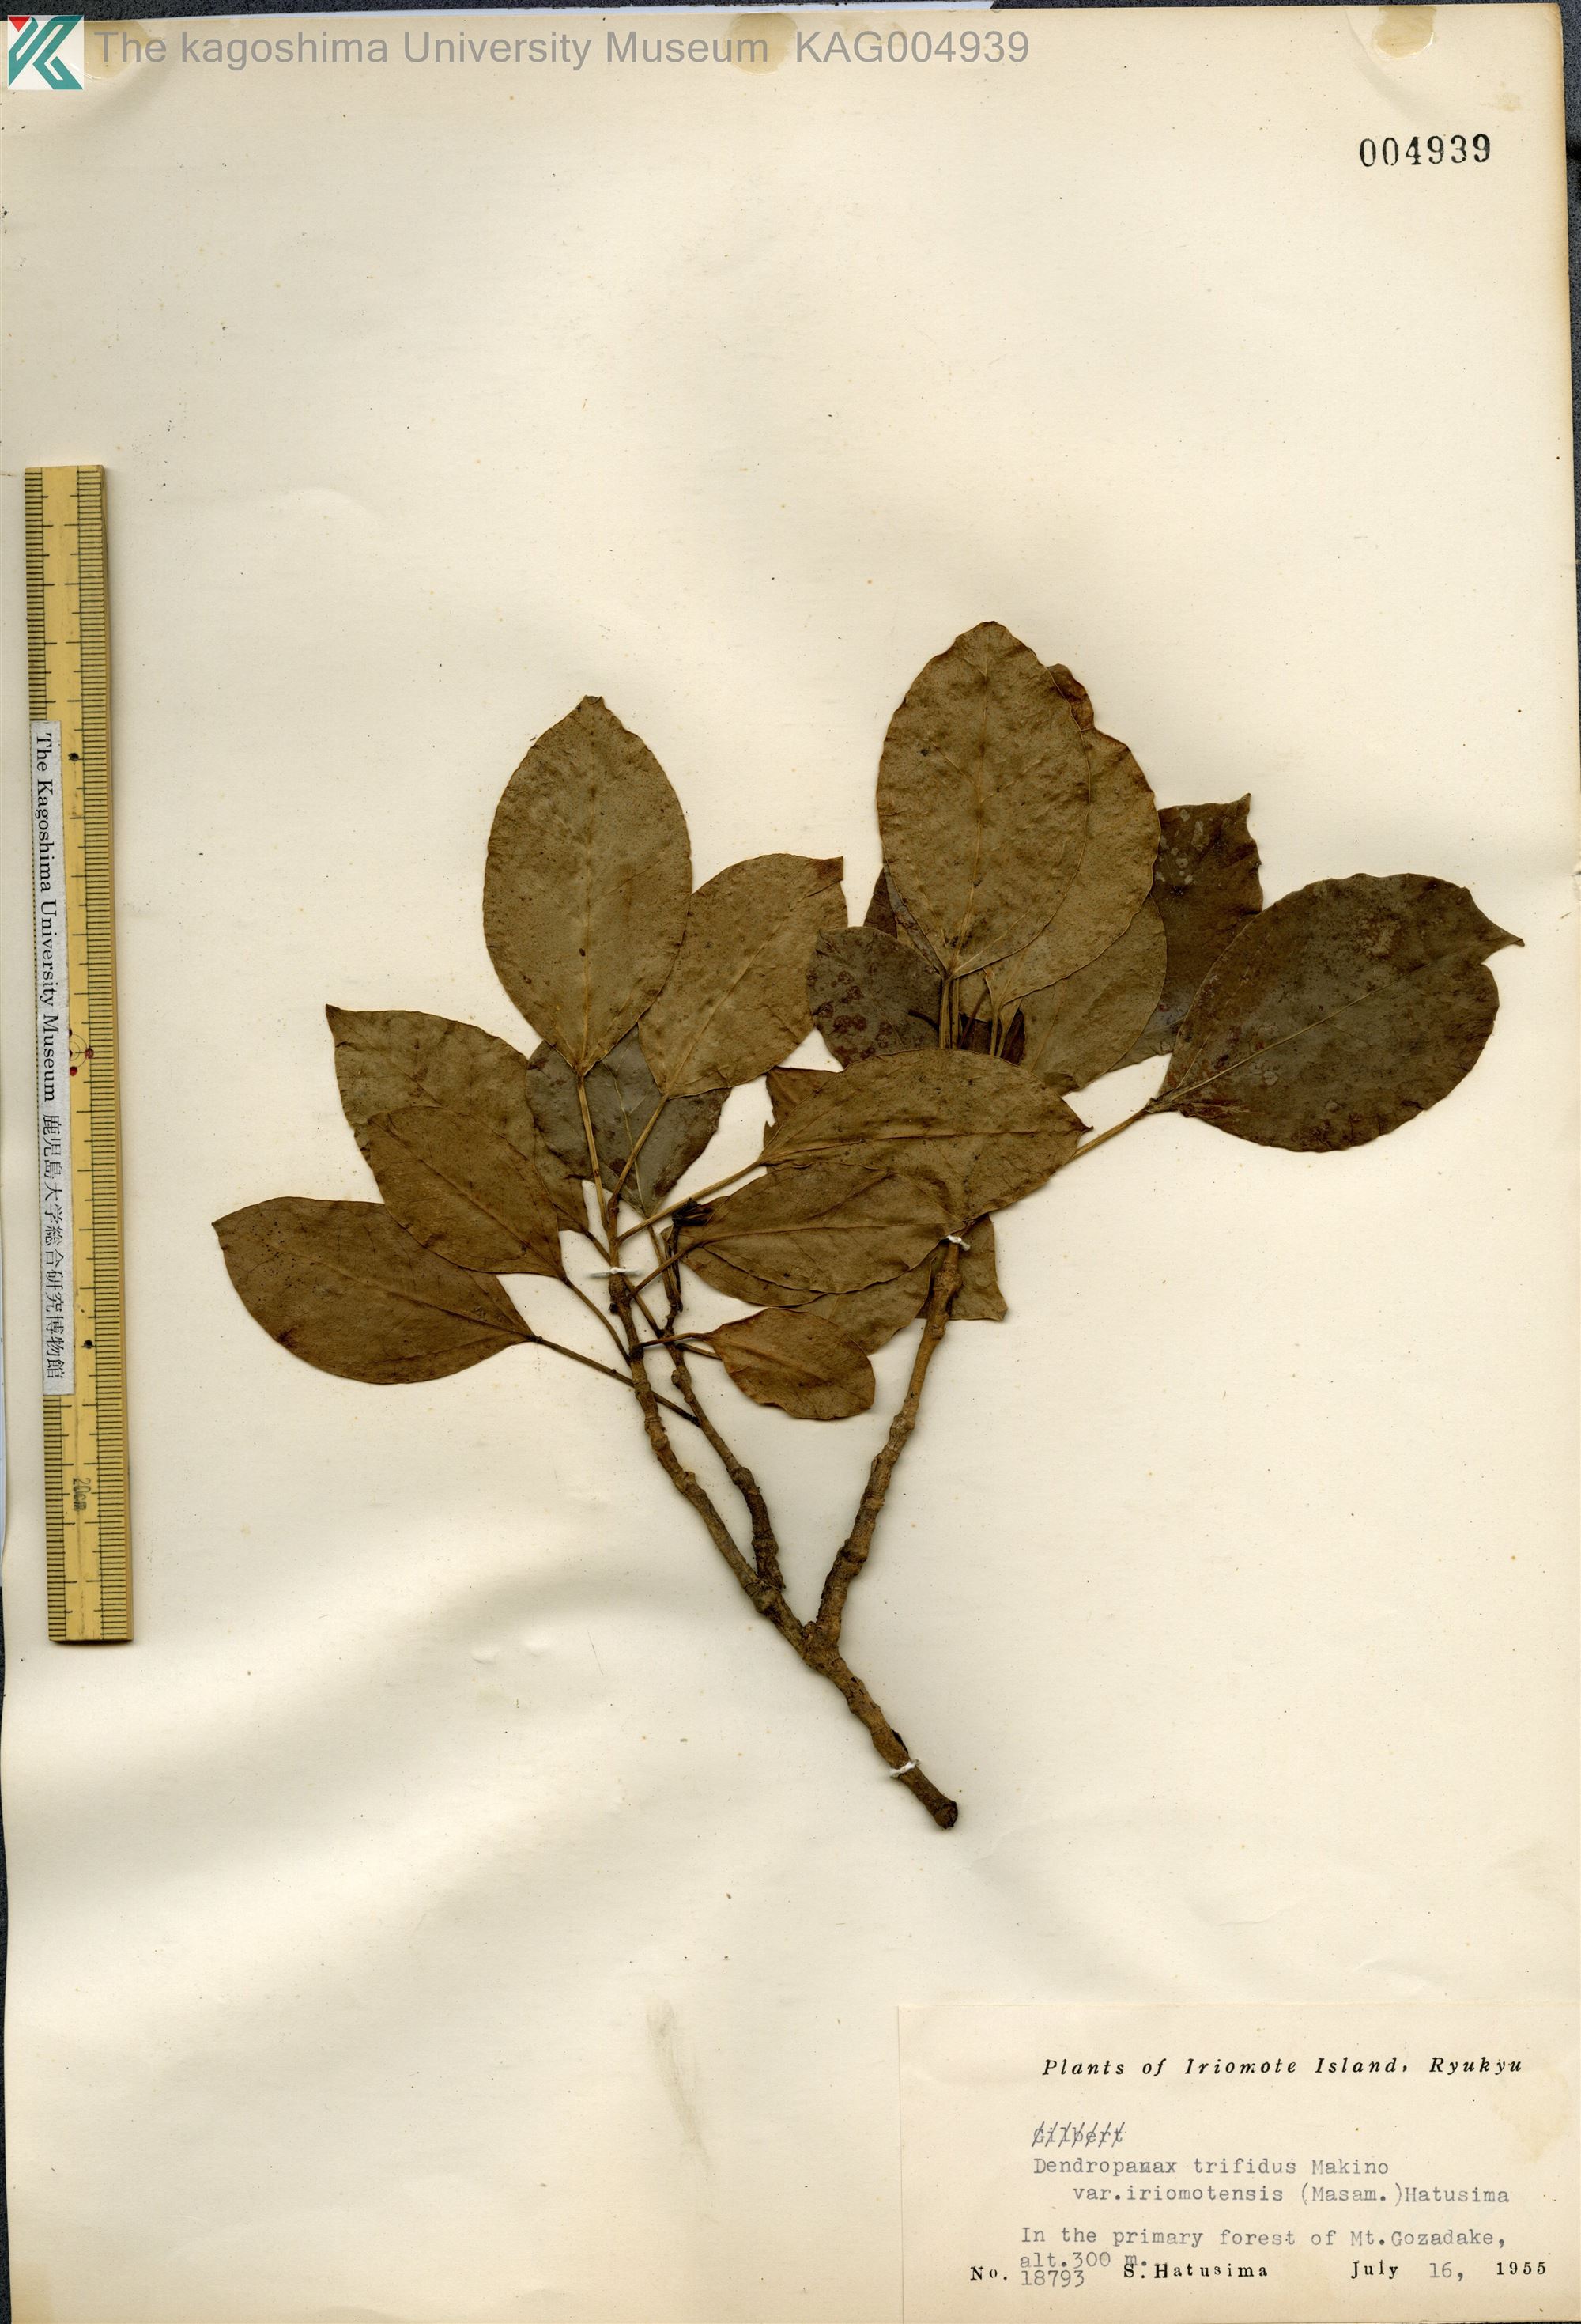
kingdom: Plantae
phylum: Tracheophyta
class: Magnoliopsida
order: Apiales
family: Araliaceae
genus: Dendropanax
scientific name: Dendropanax trifidus
